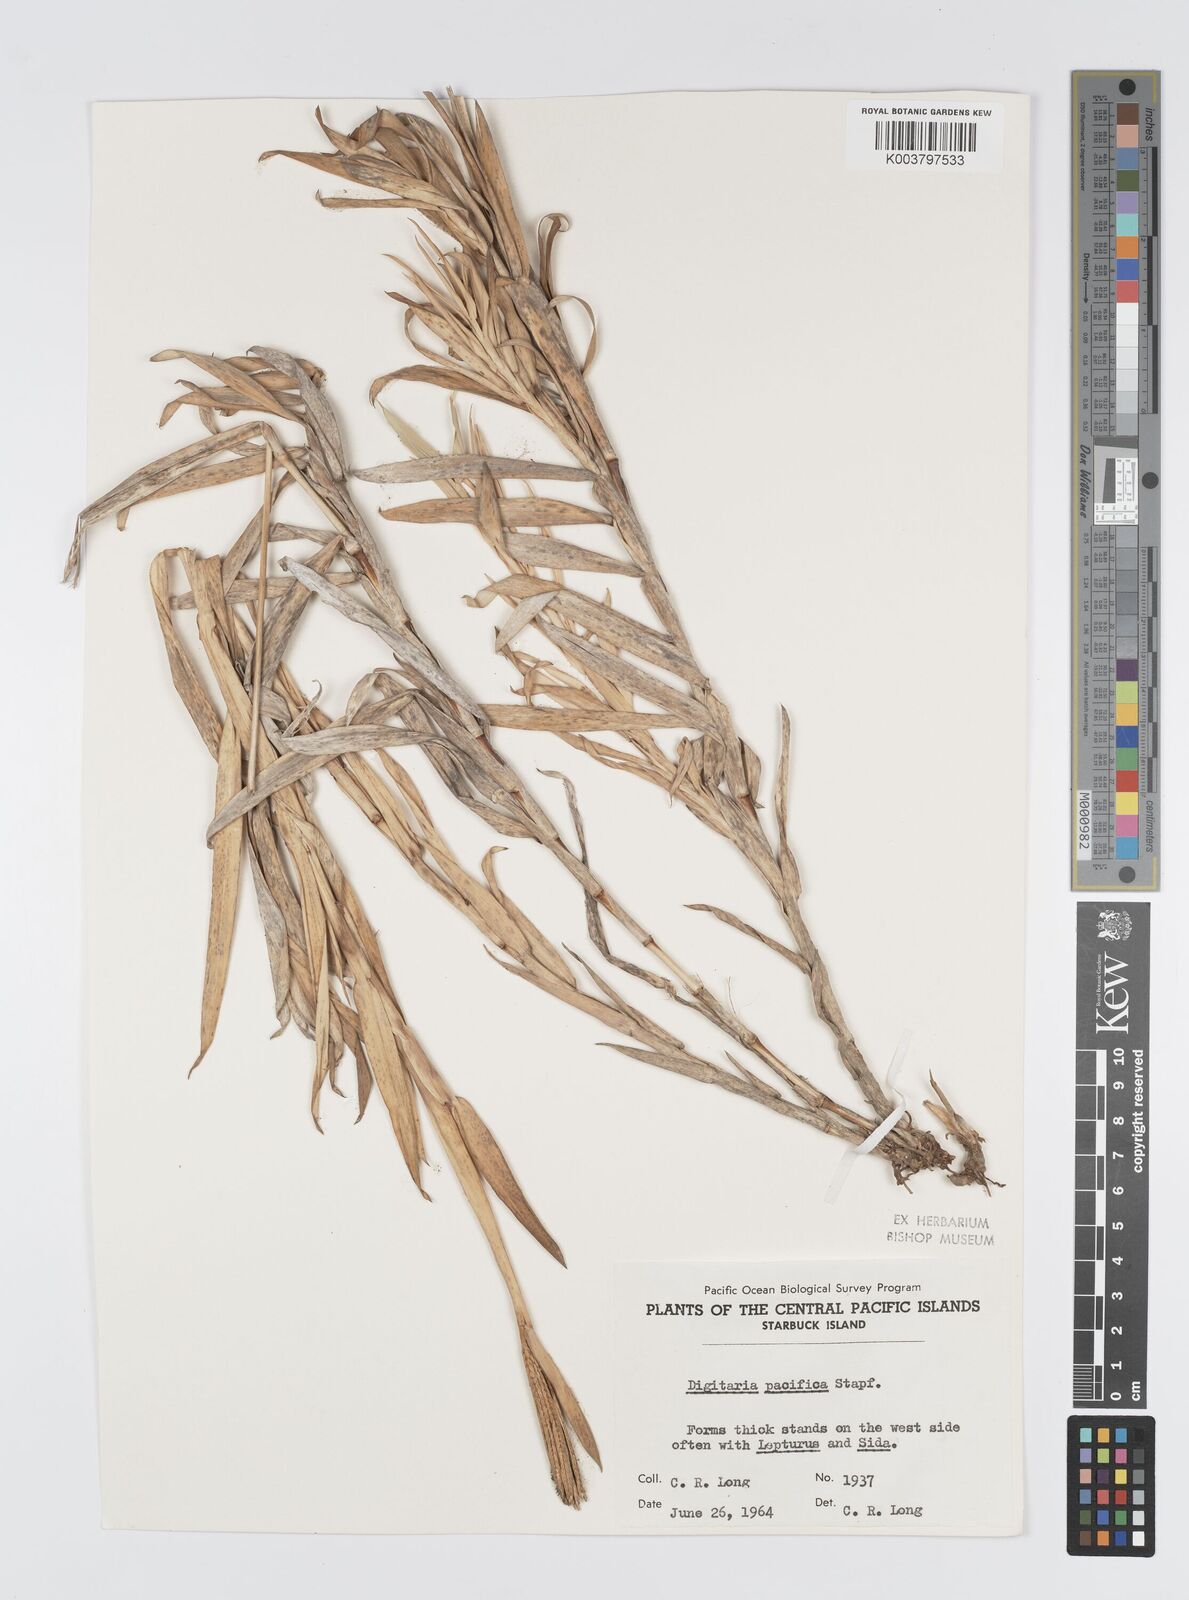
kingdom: Plantae
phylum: Tracheophyta
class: Liliopsida
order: Poales
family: Poaceae
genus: Digitaria
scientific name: Digitaria stenotaphrodes
